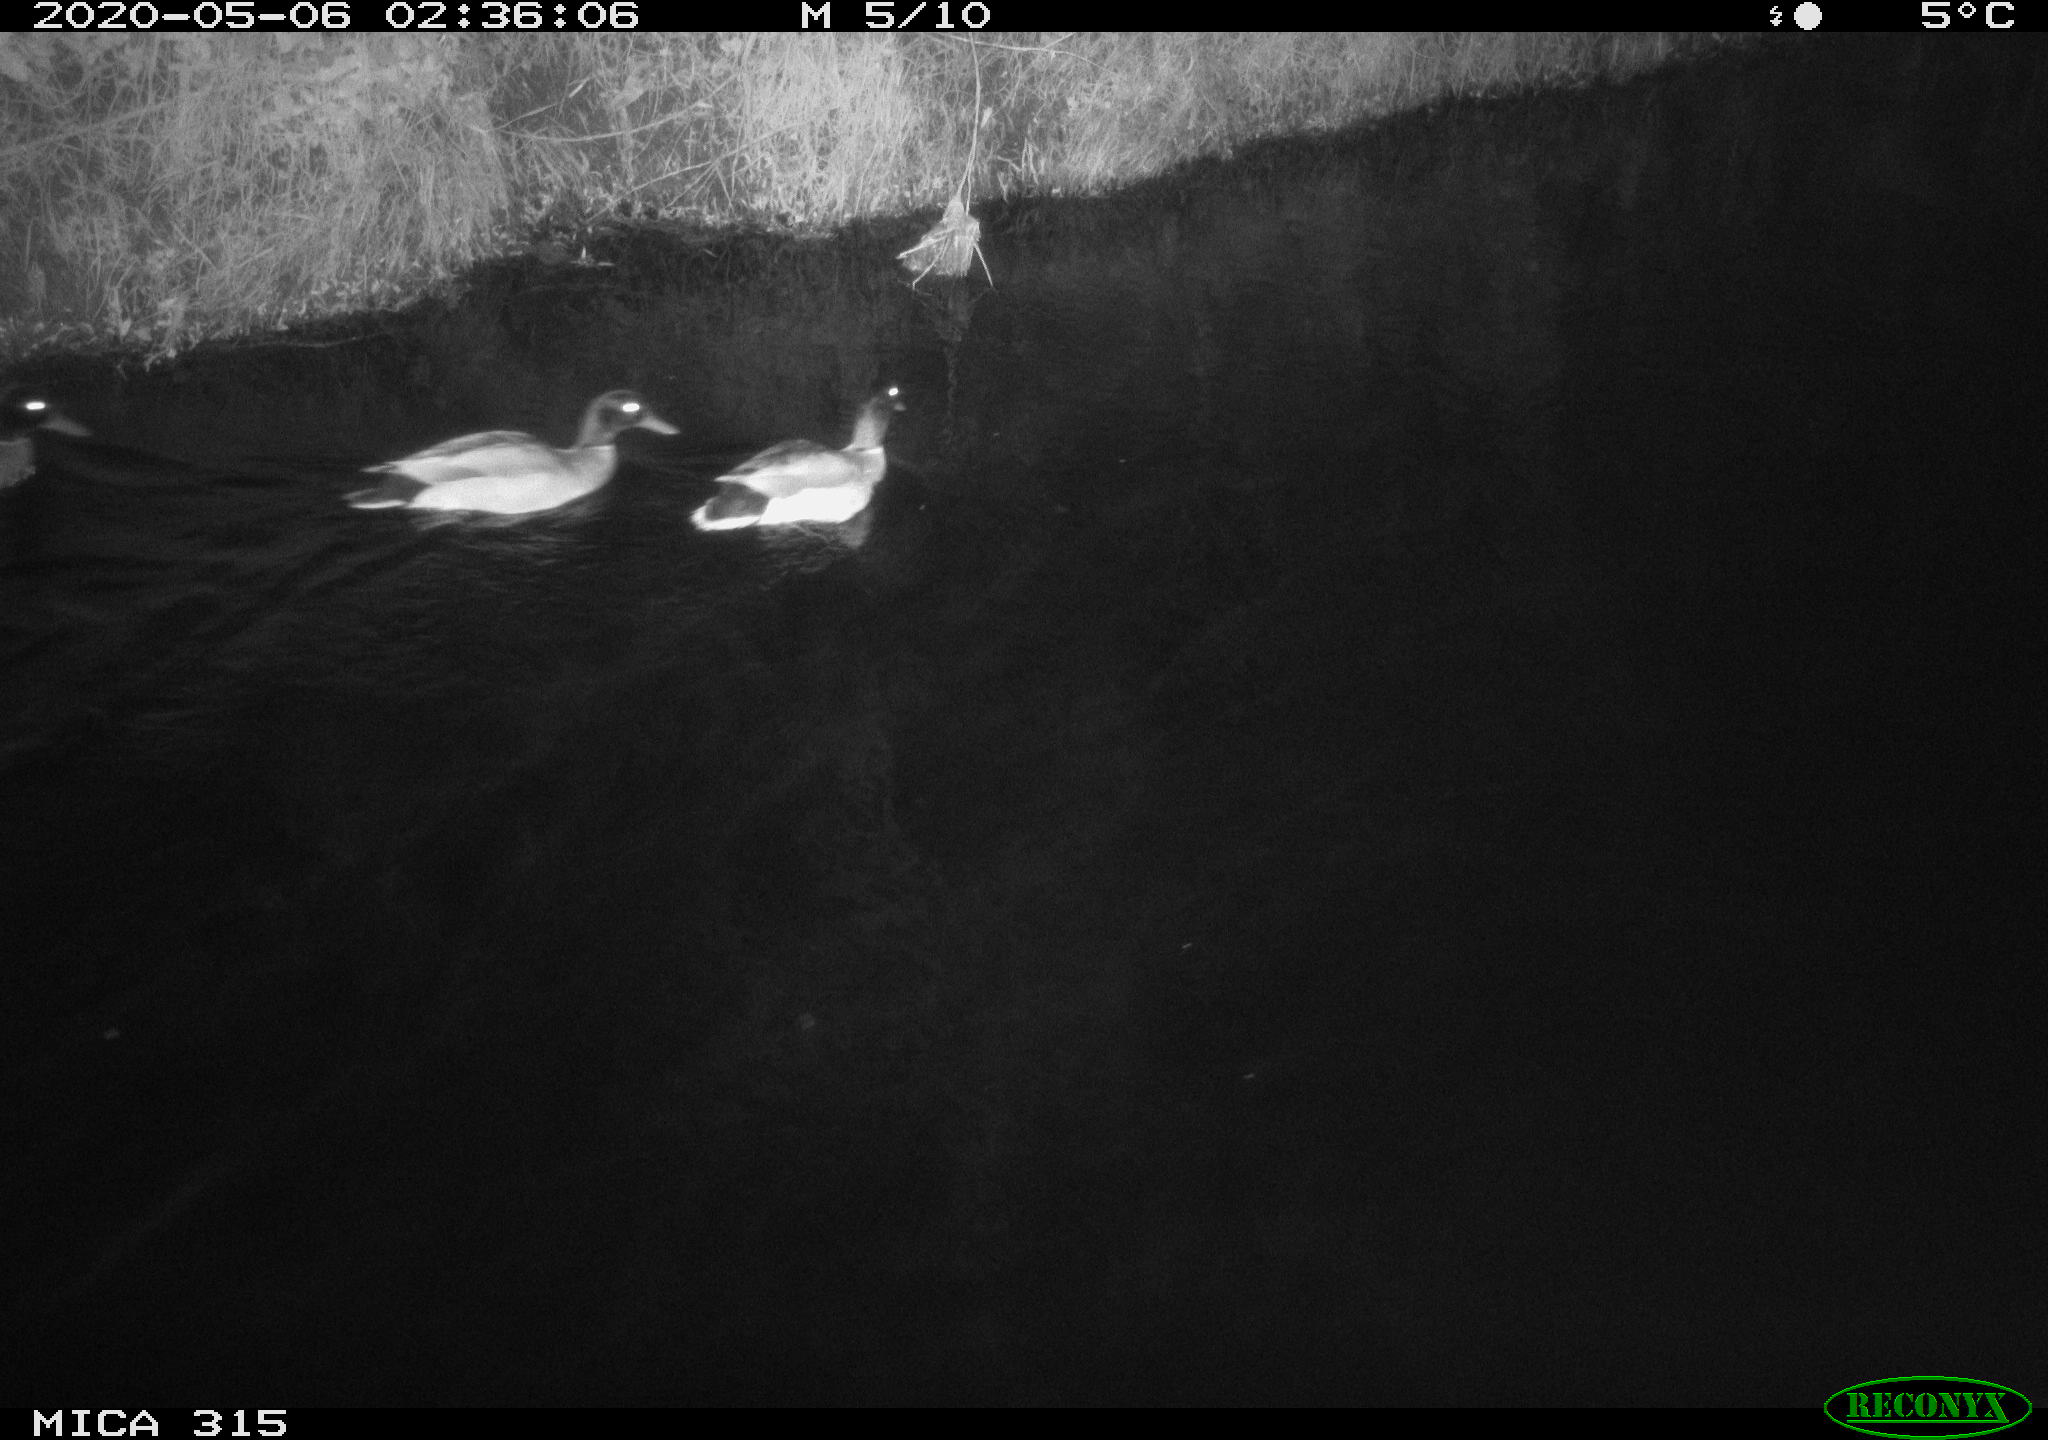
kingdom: Animalia
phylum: Chordata
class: Aves
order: Anseriformes
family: Anatidae
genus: Anas
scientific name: Anas platyrhynchos
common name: Mallard
